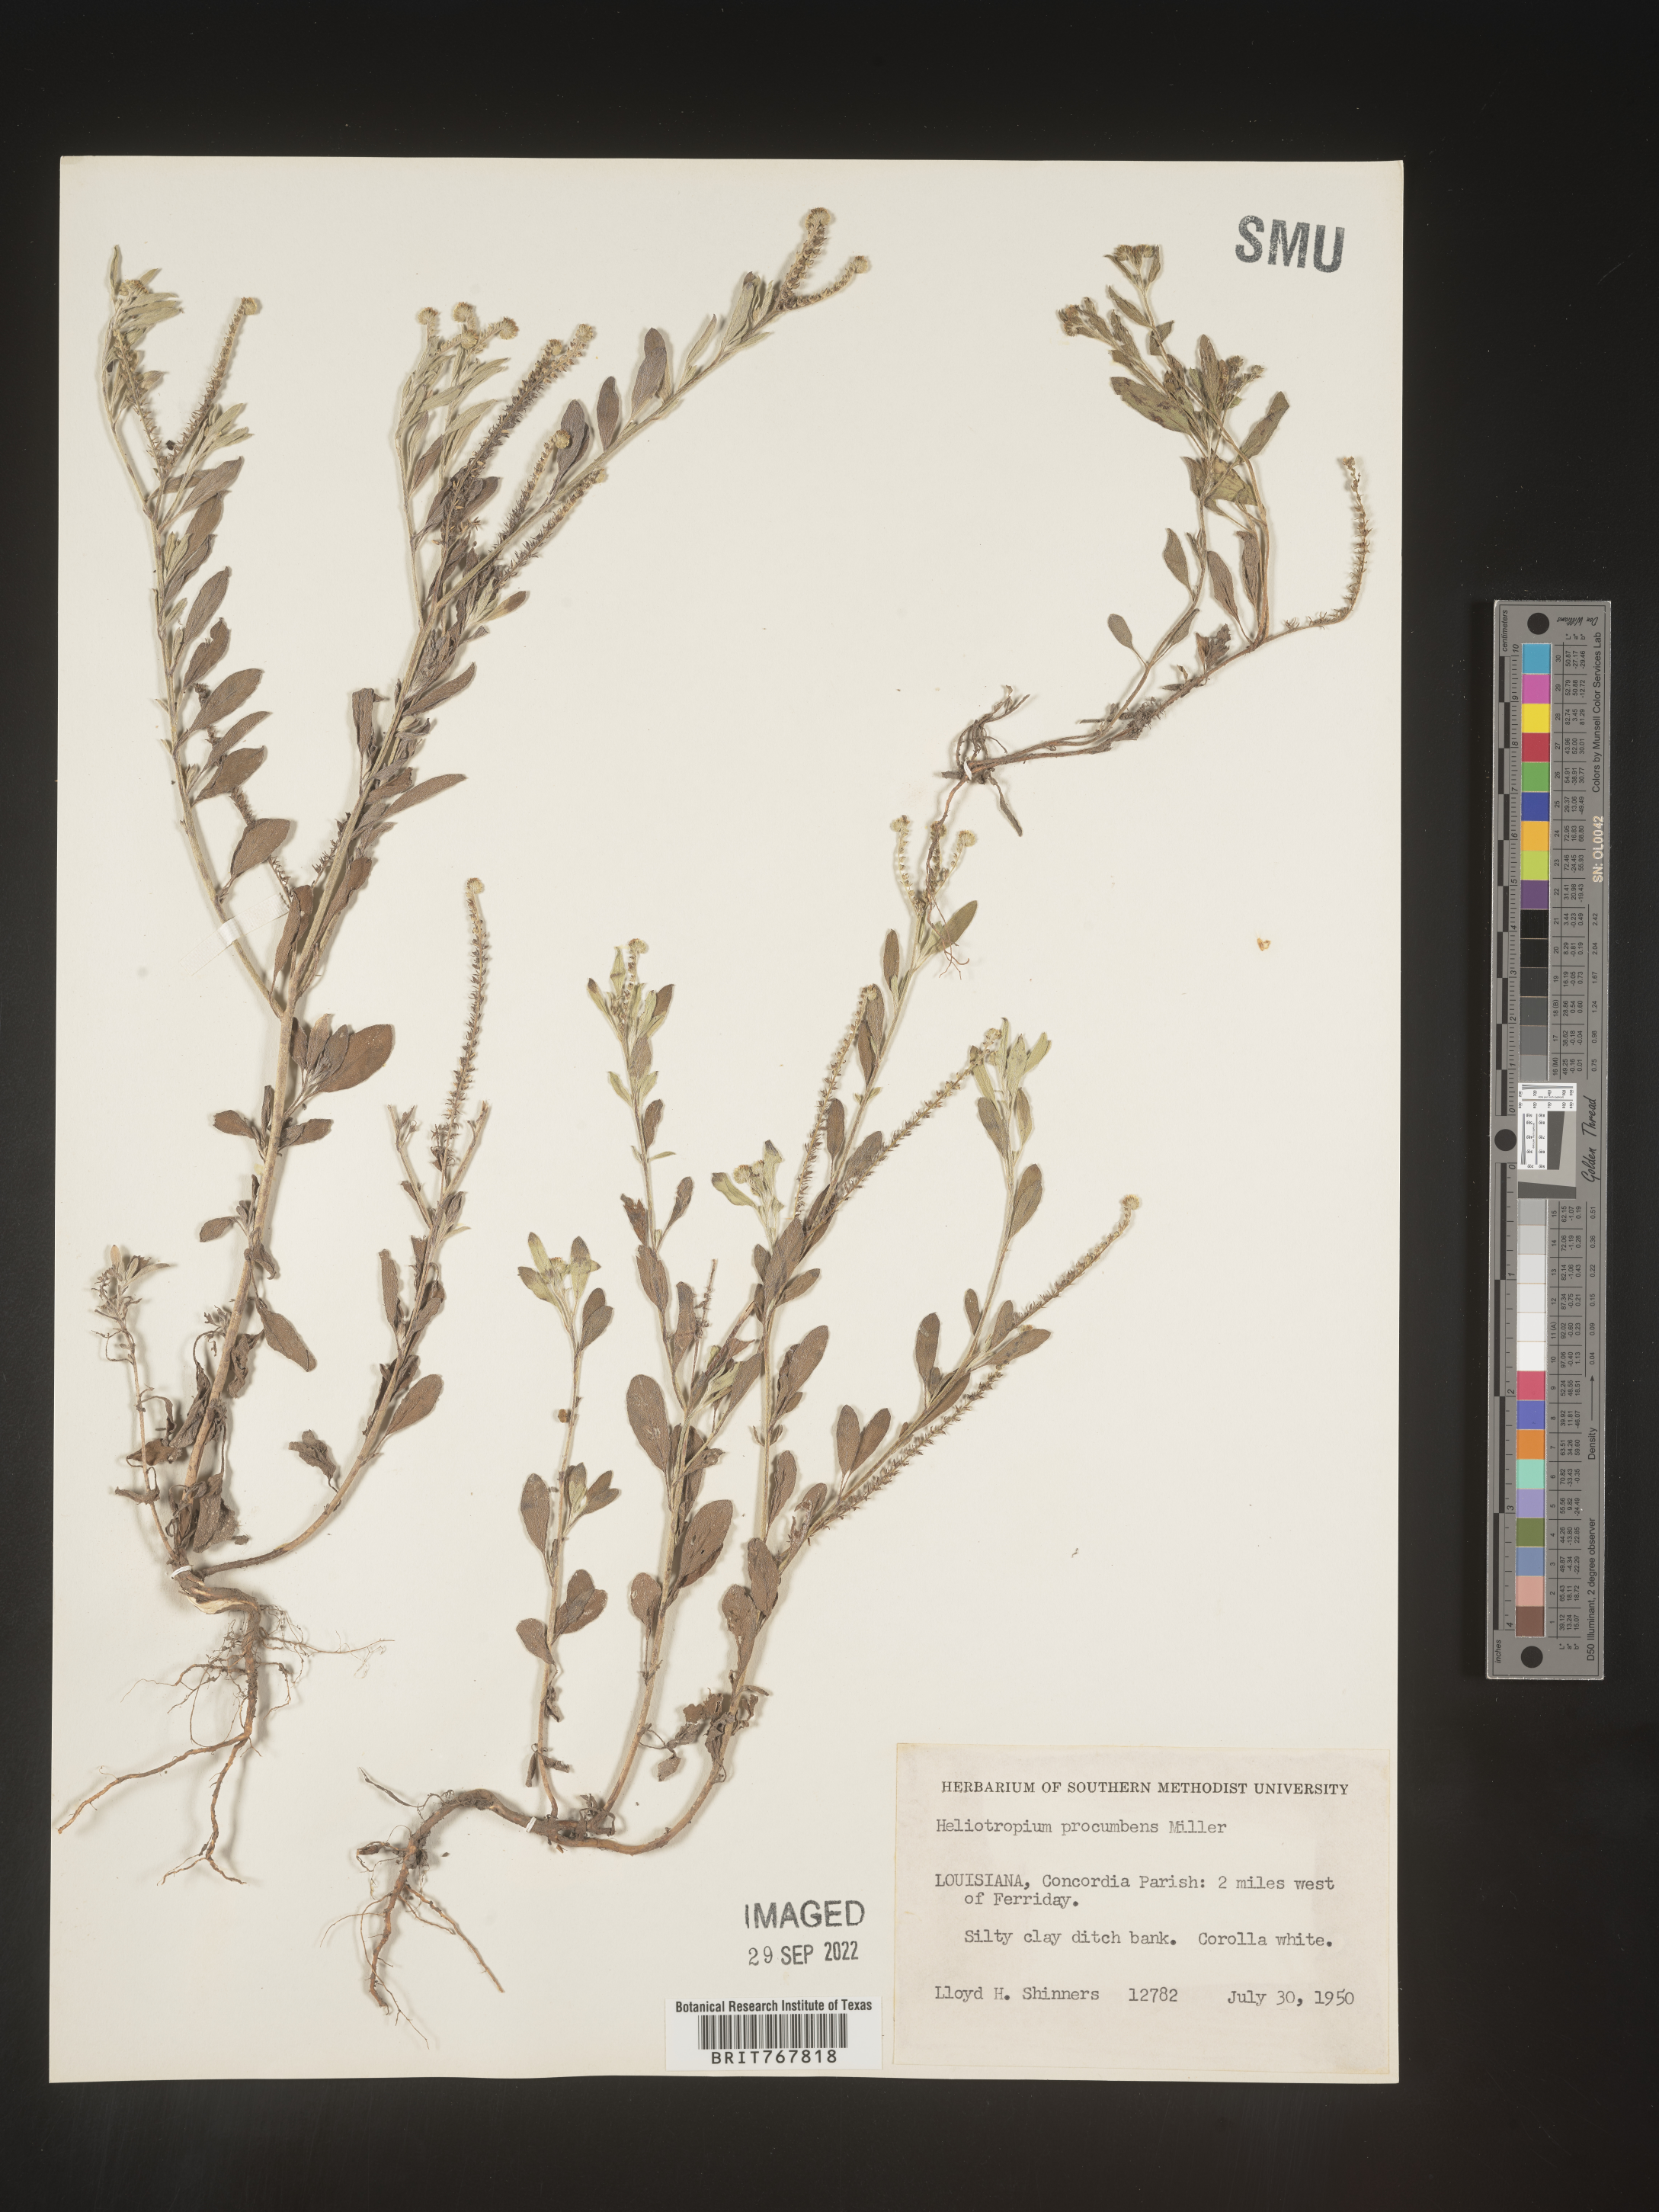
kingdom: Plantae
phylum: Tracheophyta
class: Magnoliopsida
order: Boraginales
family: Heliotropiaceae
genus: Heliotropium
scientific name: Heliotropium
